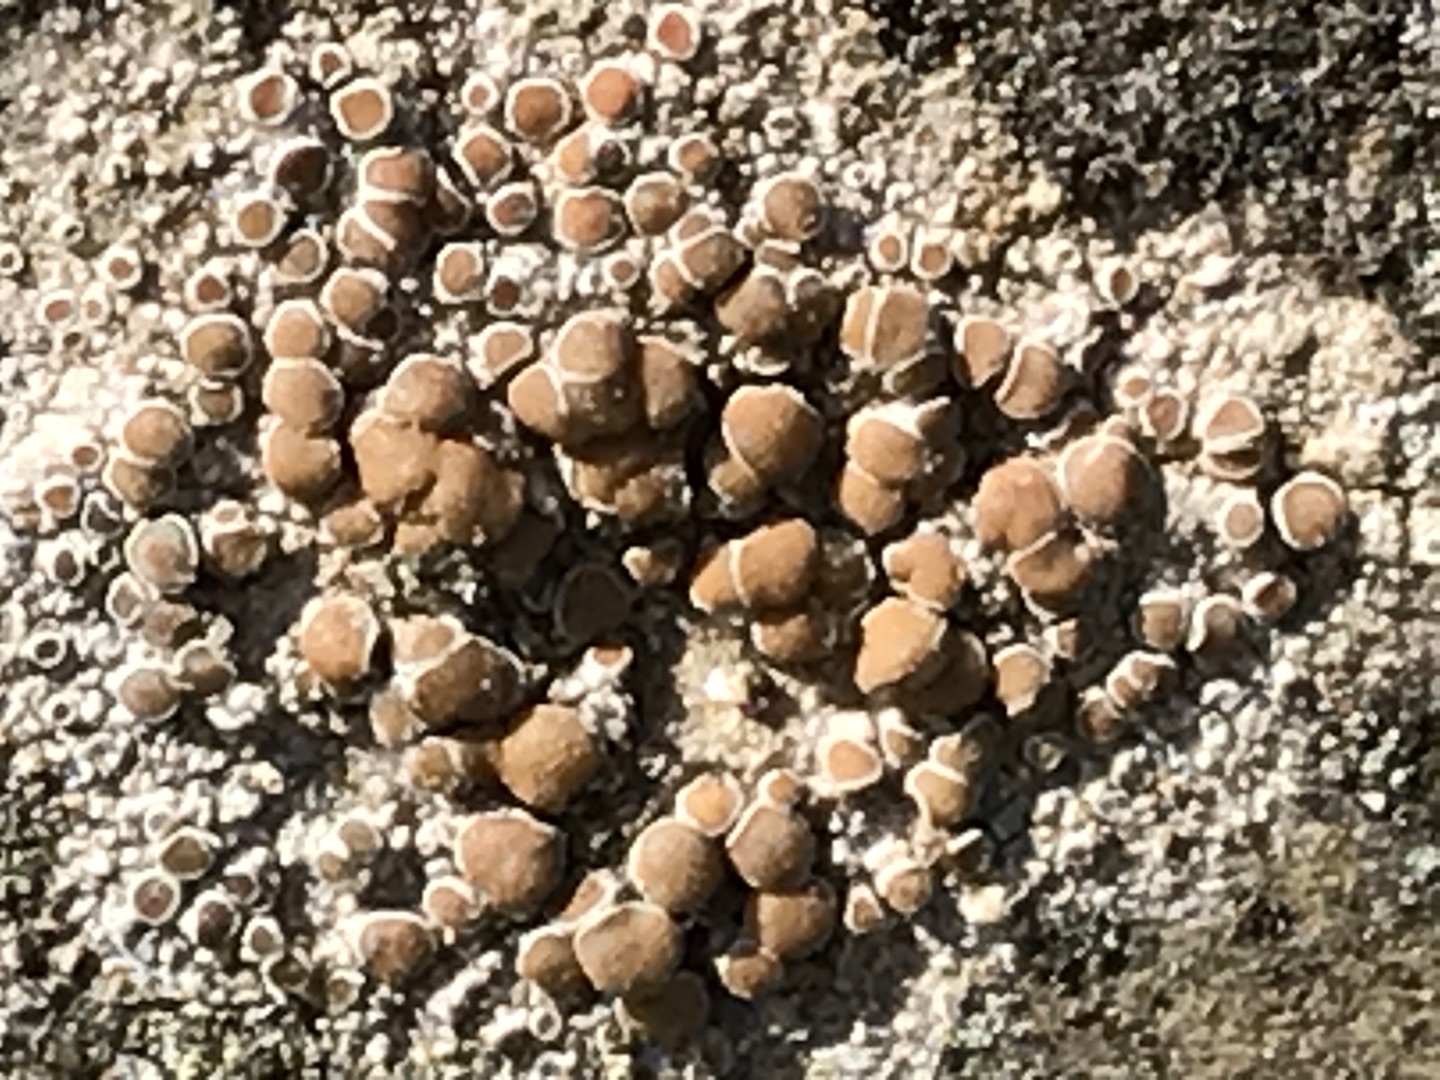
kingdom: Fungi
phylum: Ascomycota
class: Lecanoromycetes
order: Lecanorales
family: Lecanoraceae
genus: Lecanora
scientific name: Lecanora
